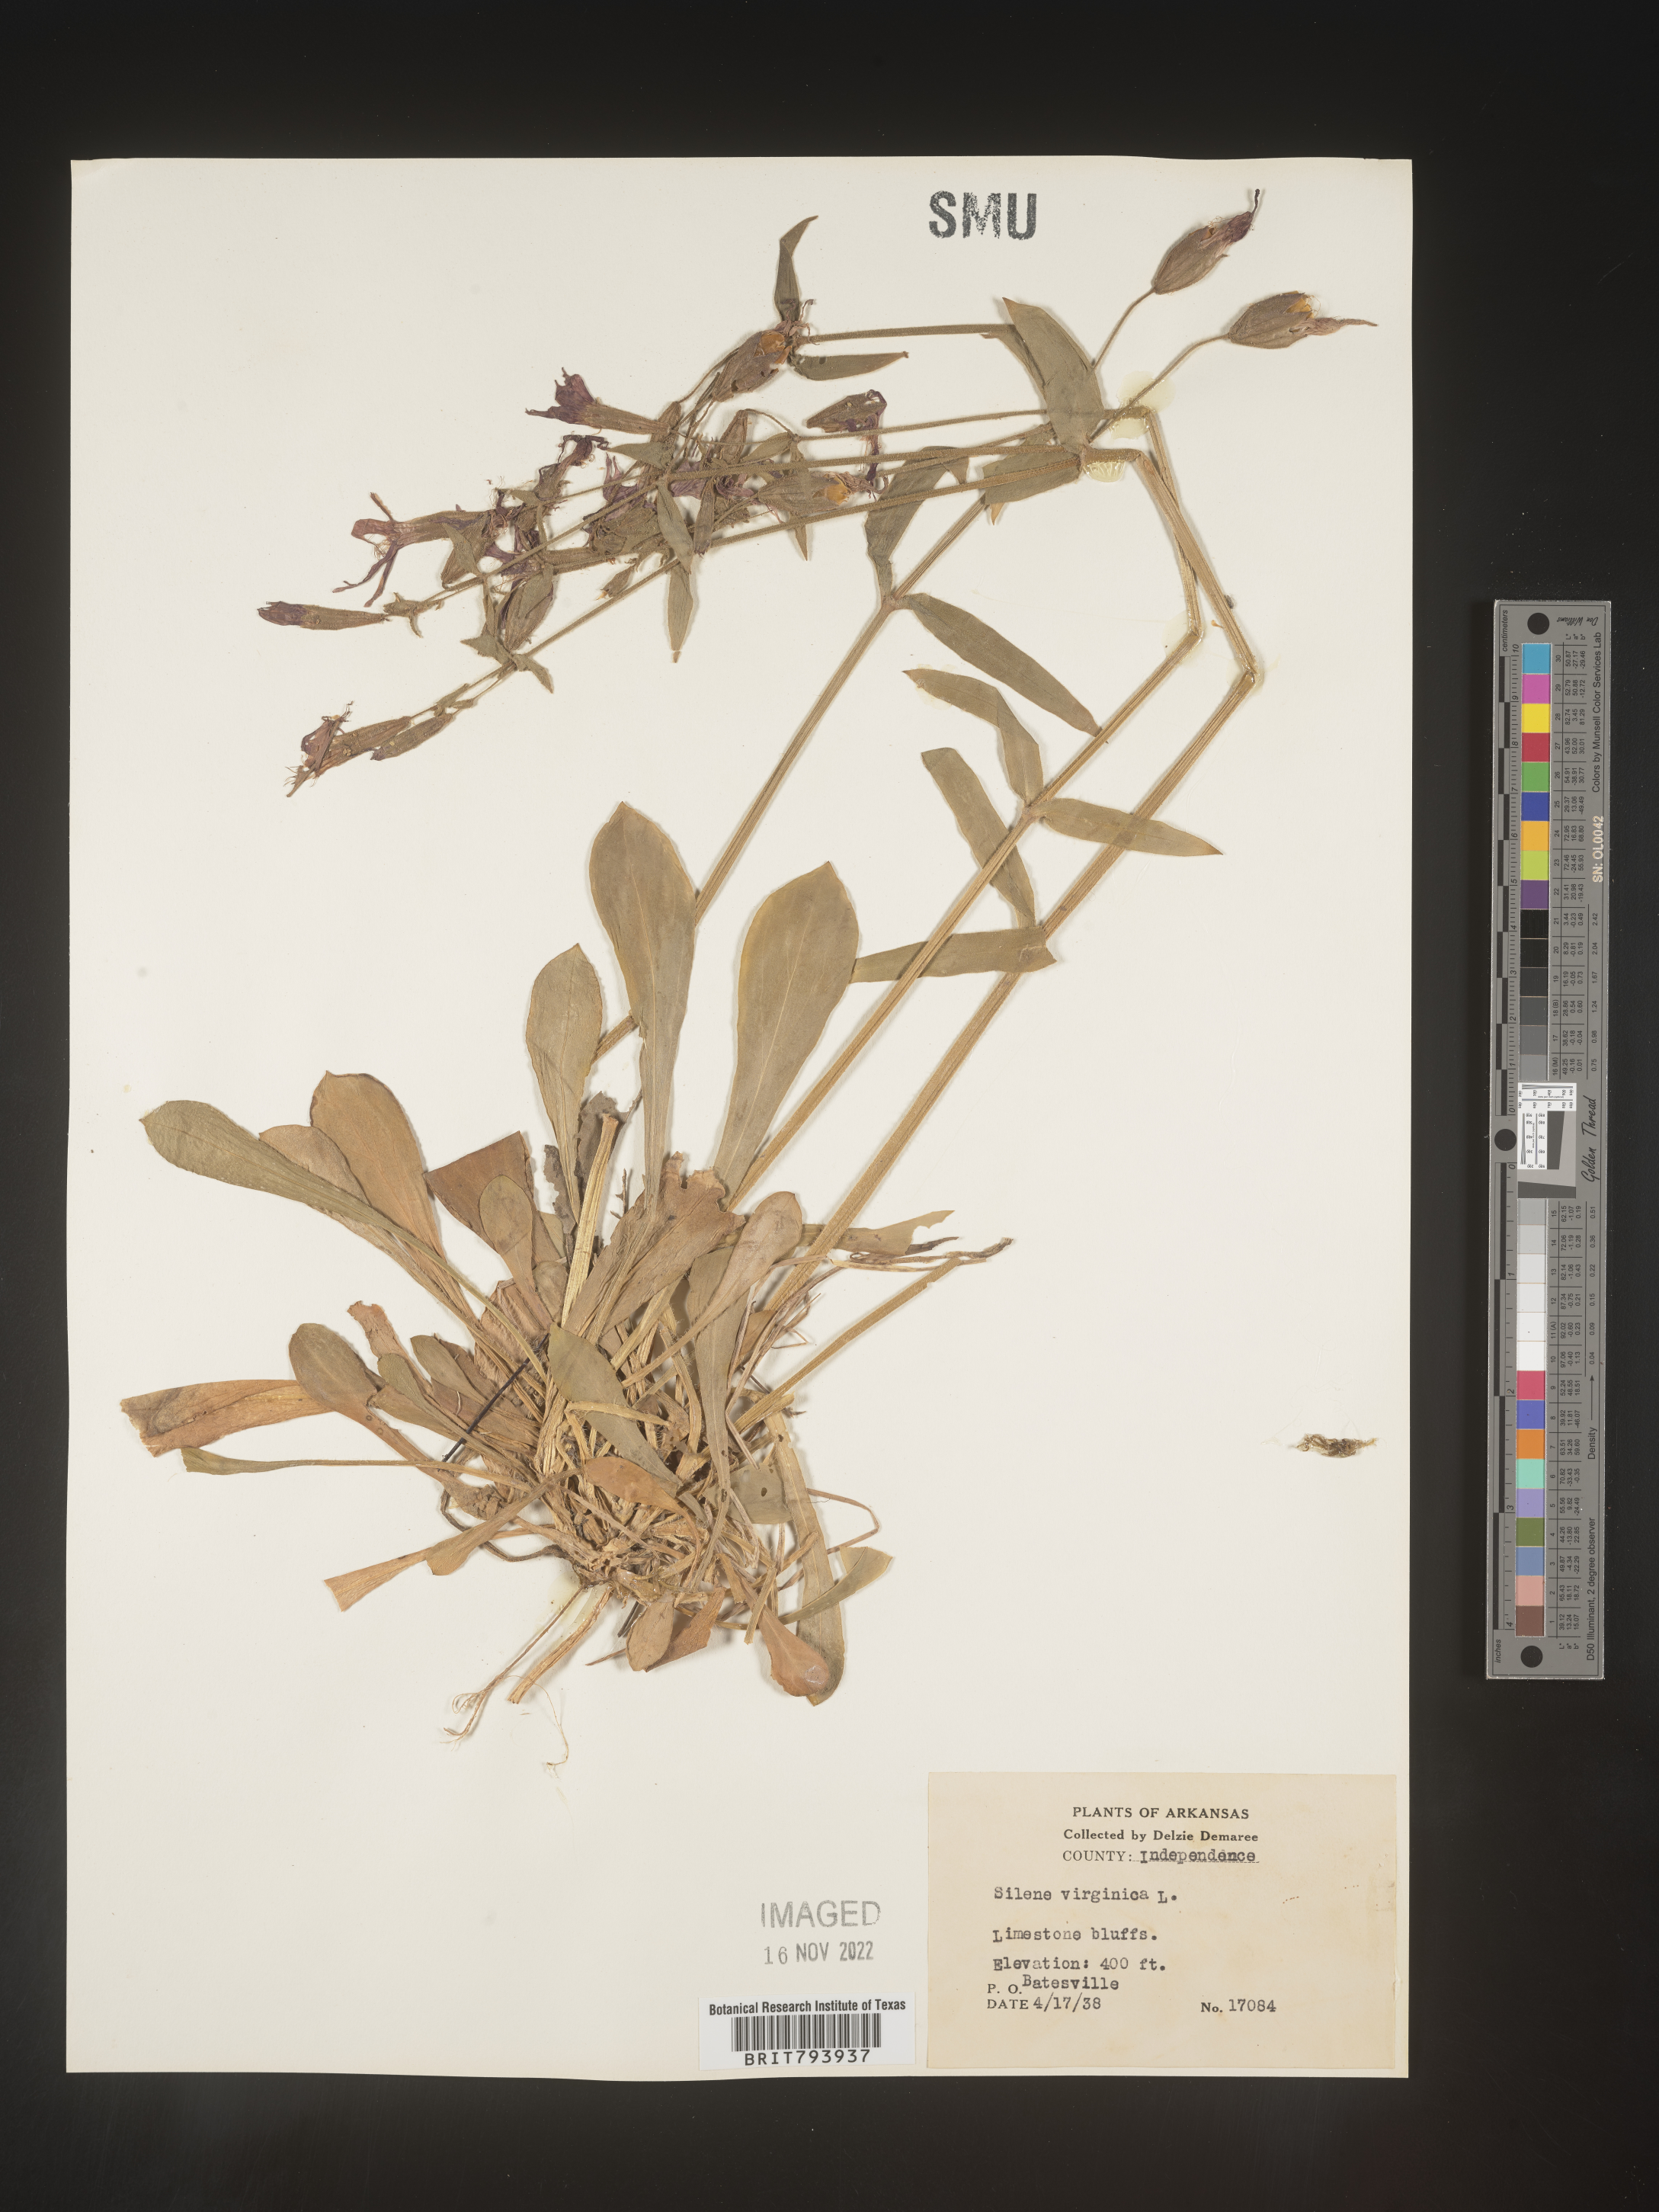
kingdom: Plantae
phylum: Tracheophyta
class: Magnoliopsida
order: Caryophyllales
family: Caryophyllaceae
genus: Silene
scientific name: Silene virginica
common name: Fire-pink
